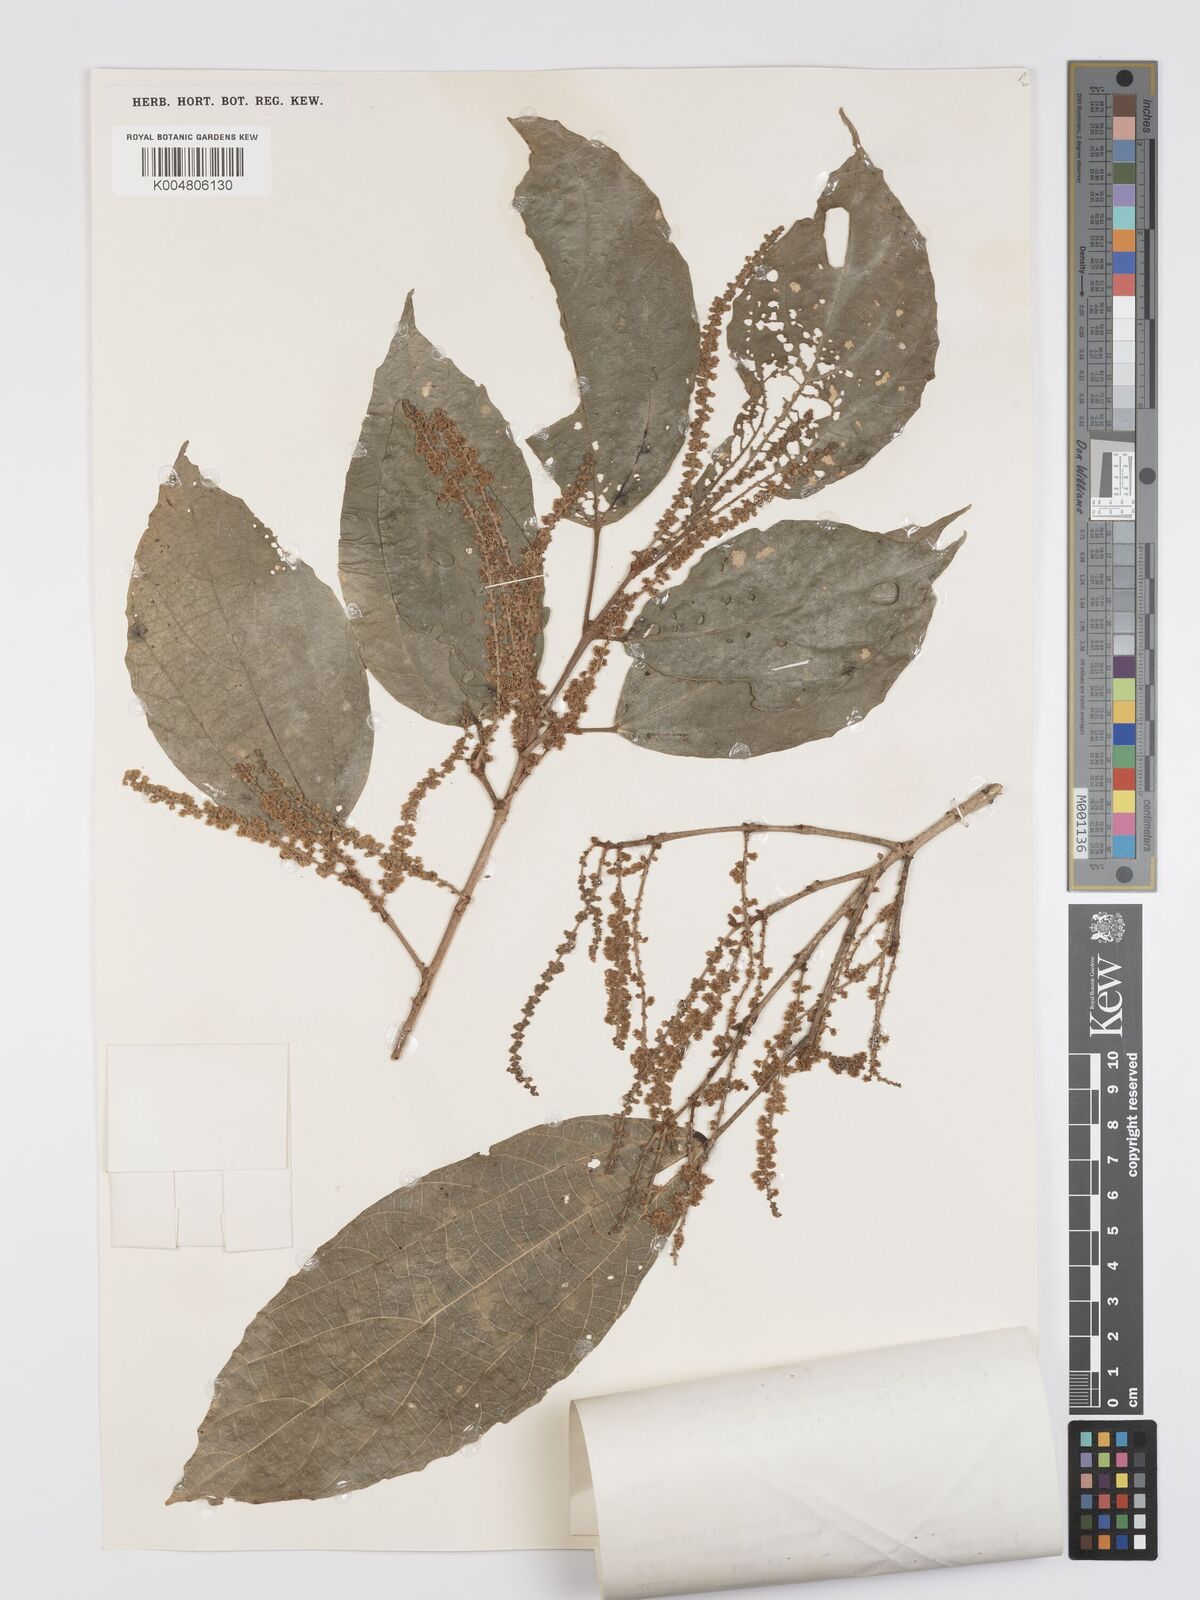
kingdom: Plantae
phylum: Tracheophyta
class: Magnoliopsida
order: Malpighiales
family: Euphorbiaceae
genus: Mallotus
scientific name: Mallotus korthalsii
